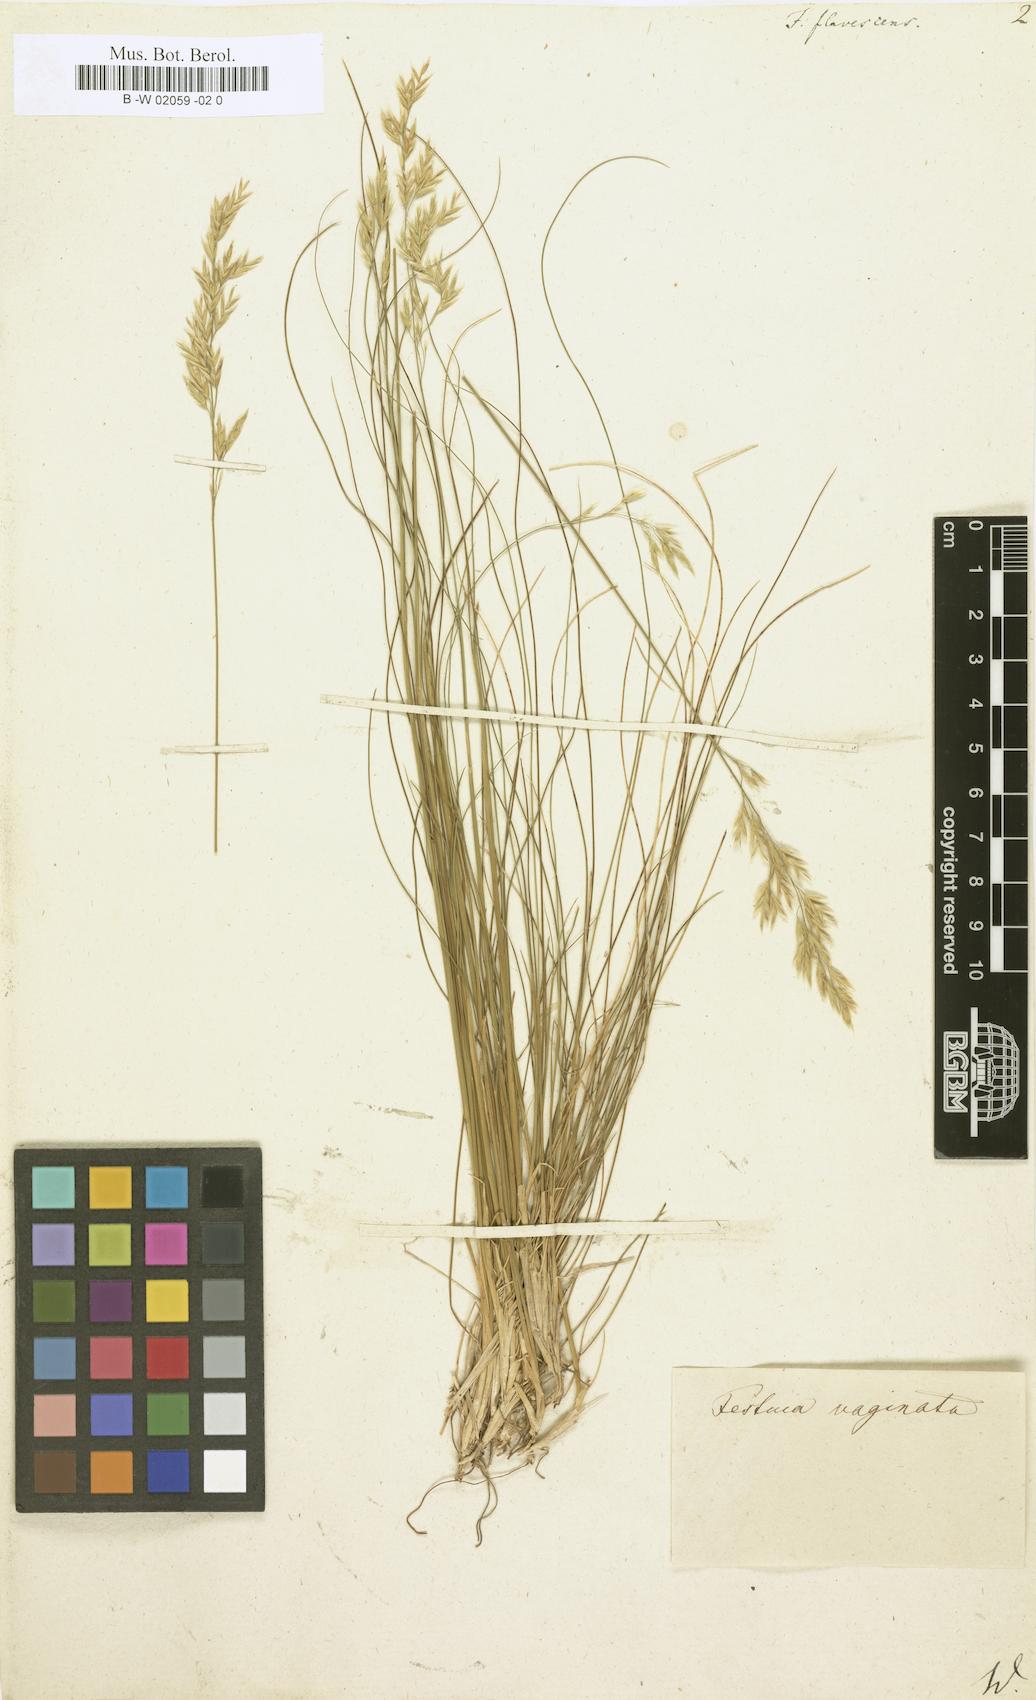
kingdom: Plantae
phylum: Tracheophyta
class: Liliopsida
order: Poales
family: Poaceae
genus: Festuca
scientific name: Festuca flavescens
